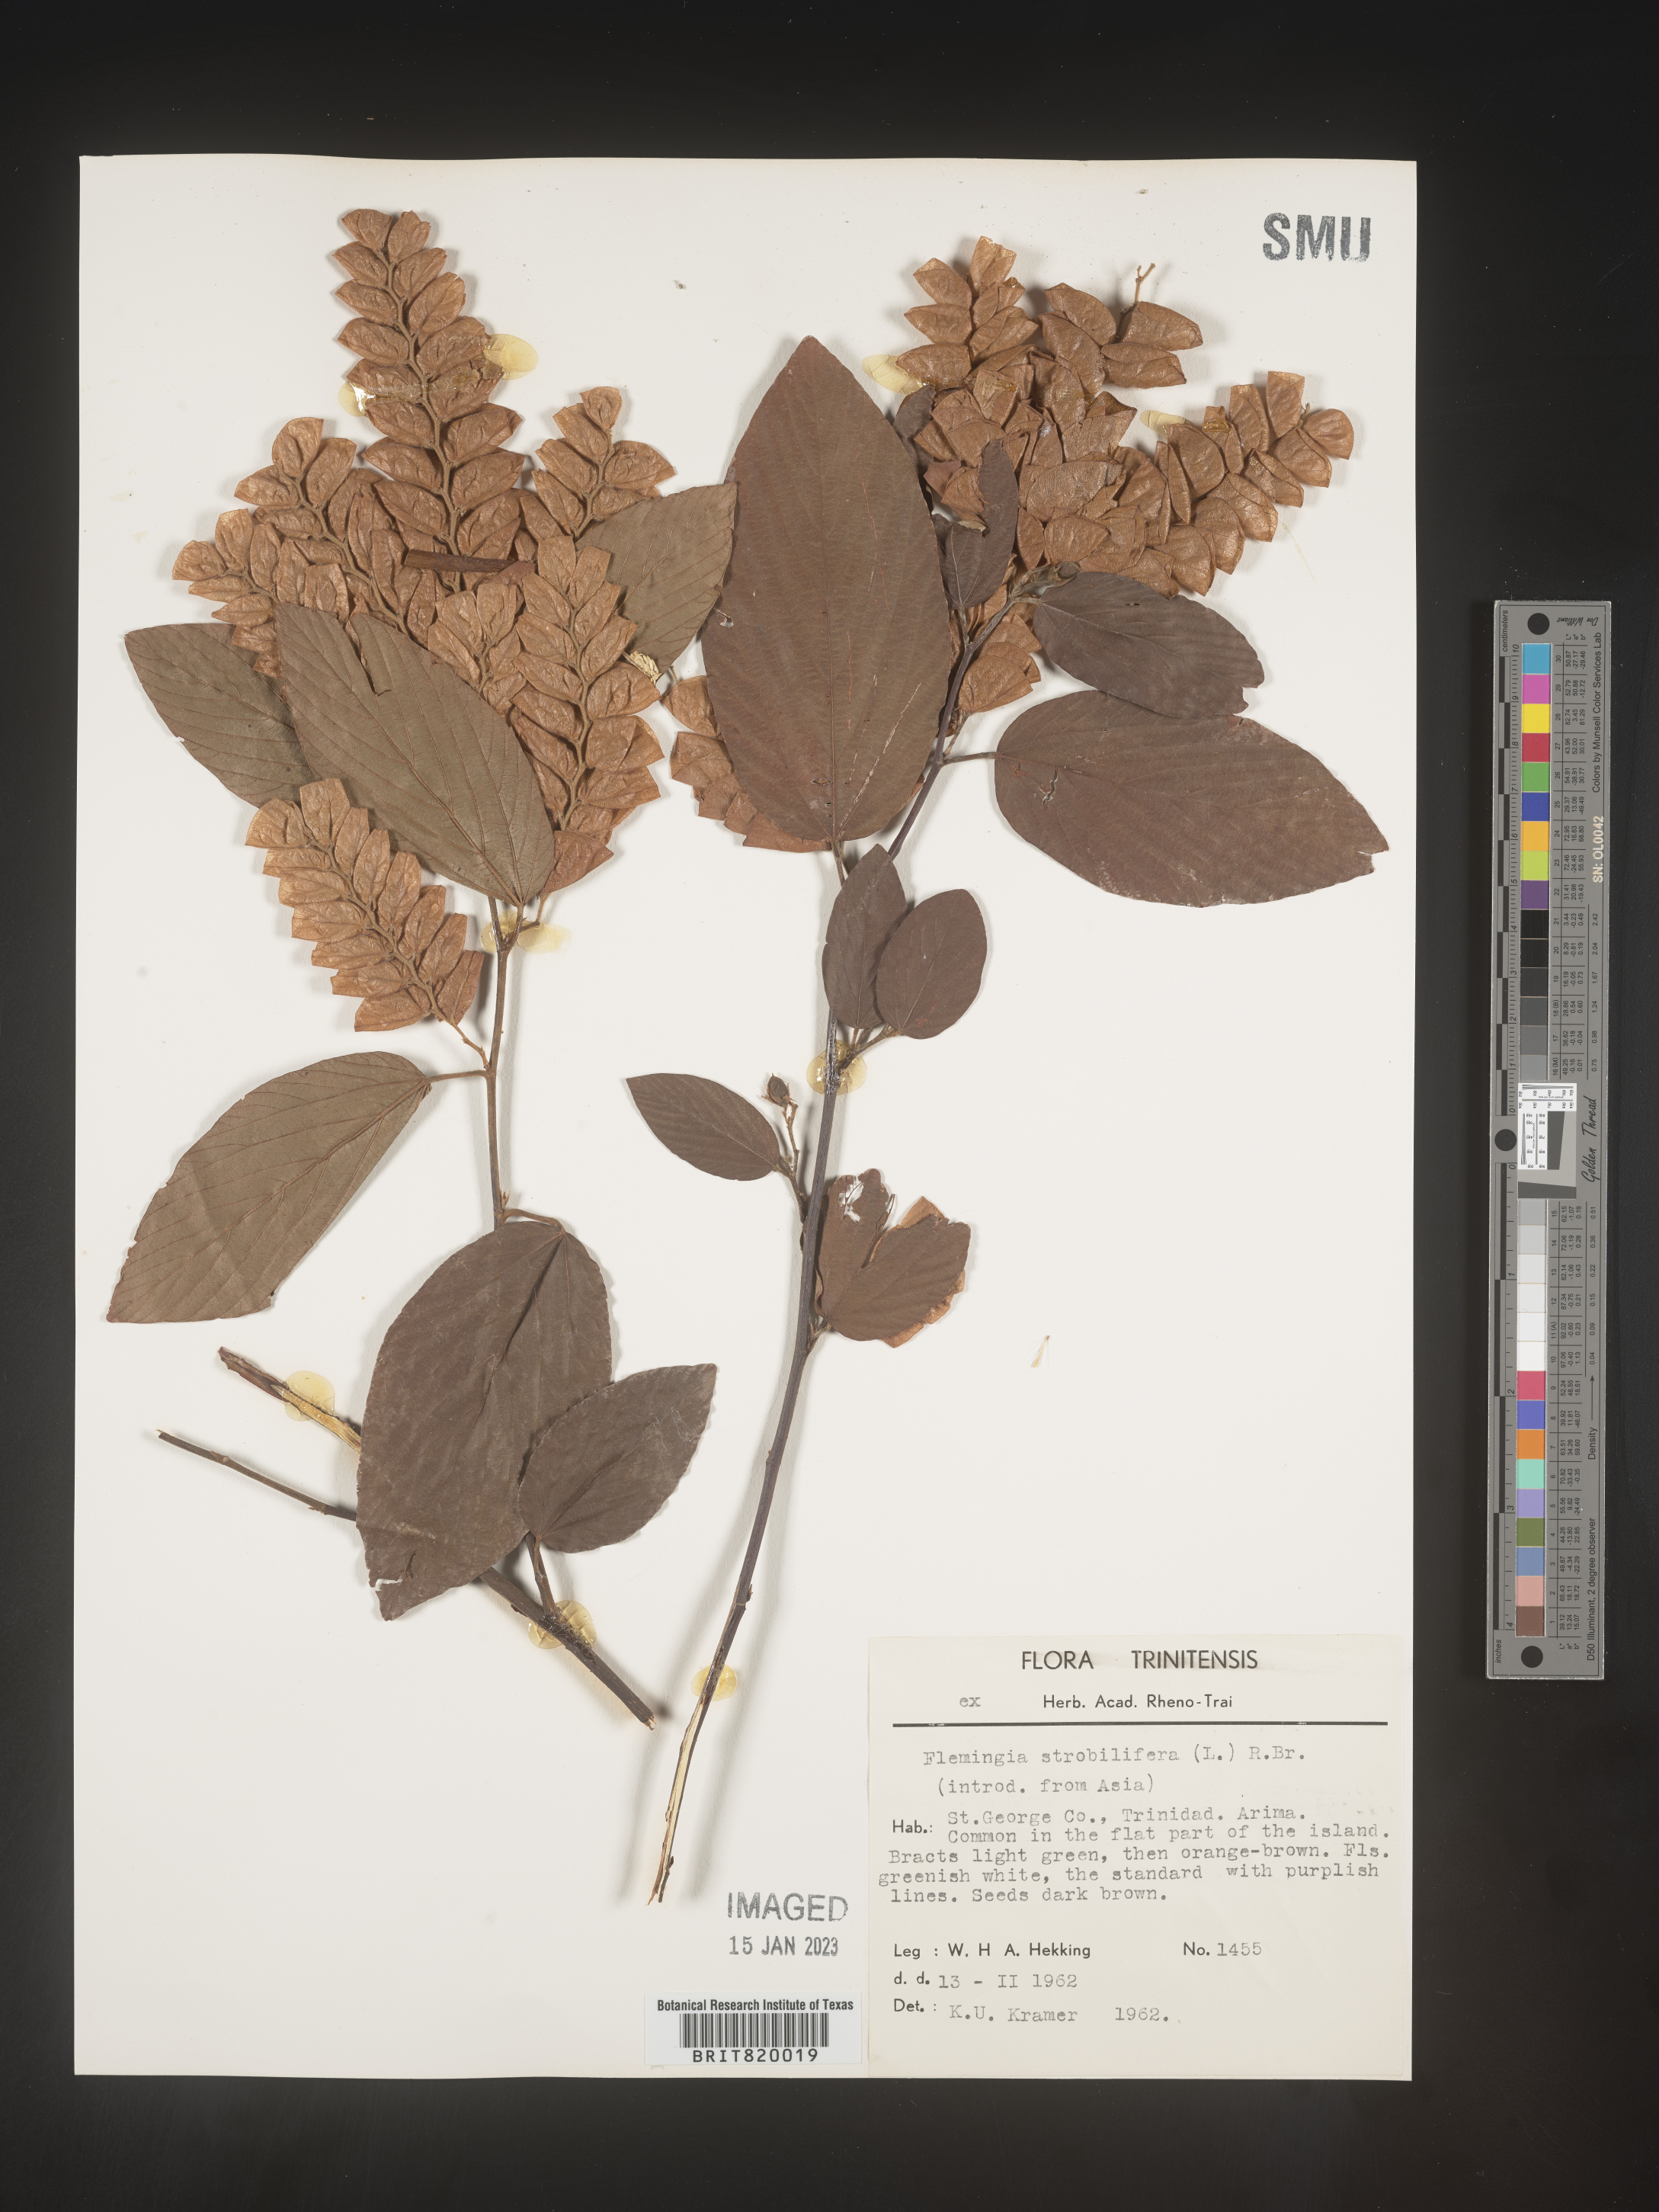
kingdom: Plantae
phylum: Tracheophyta
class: Magnoliopsida
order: Fabales
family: Fabaceae
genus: Flemingia
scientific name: Flemingia
